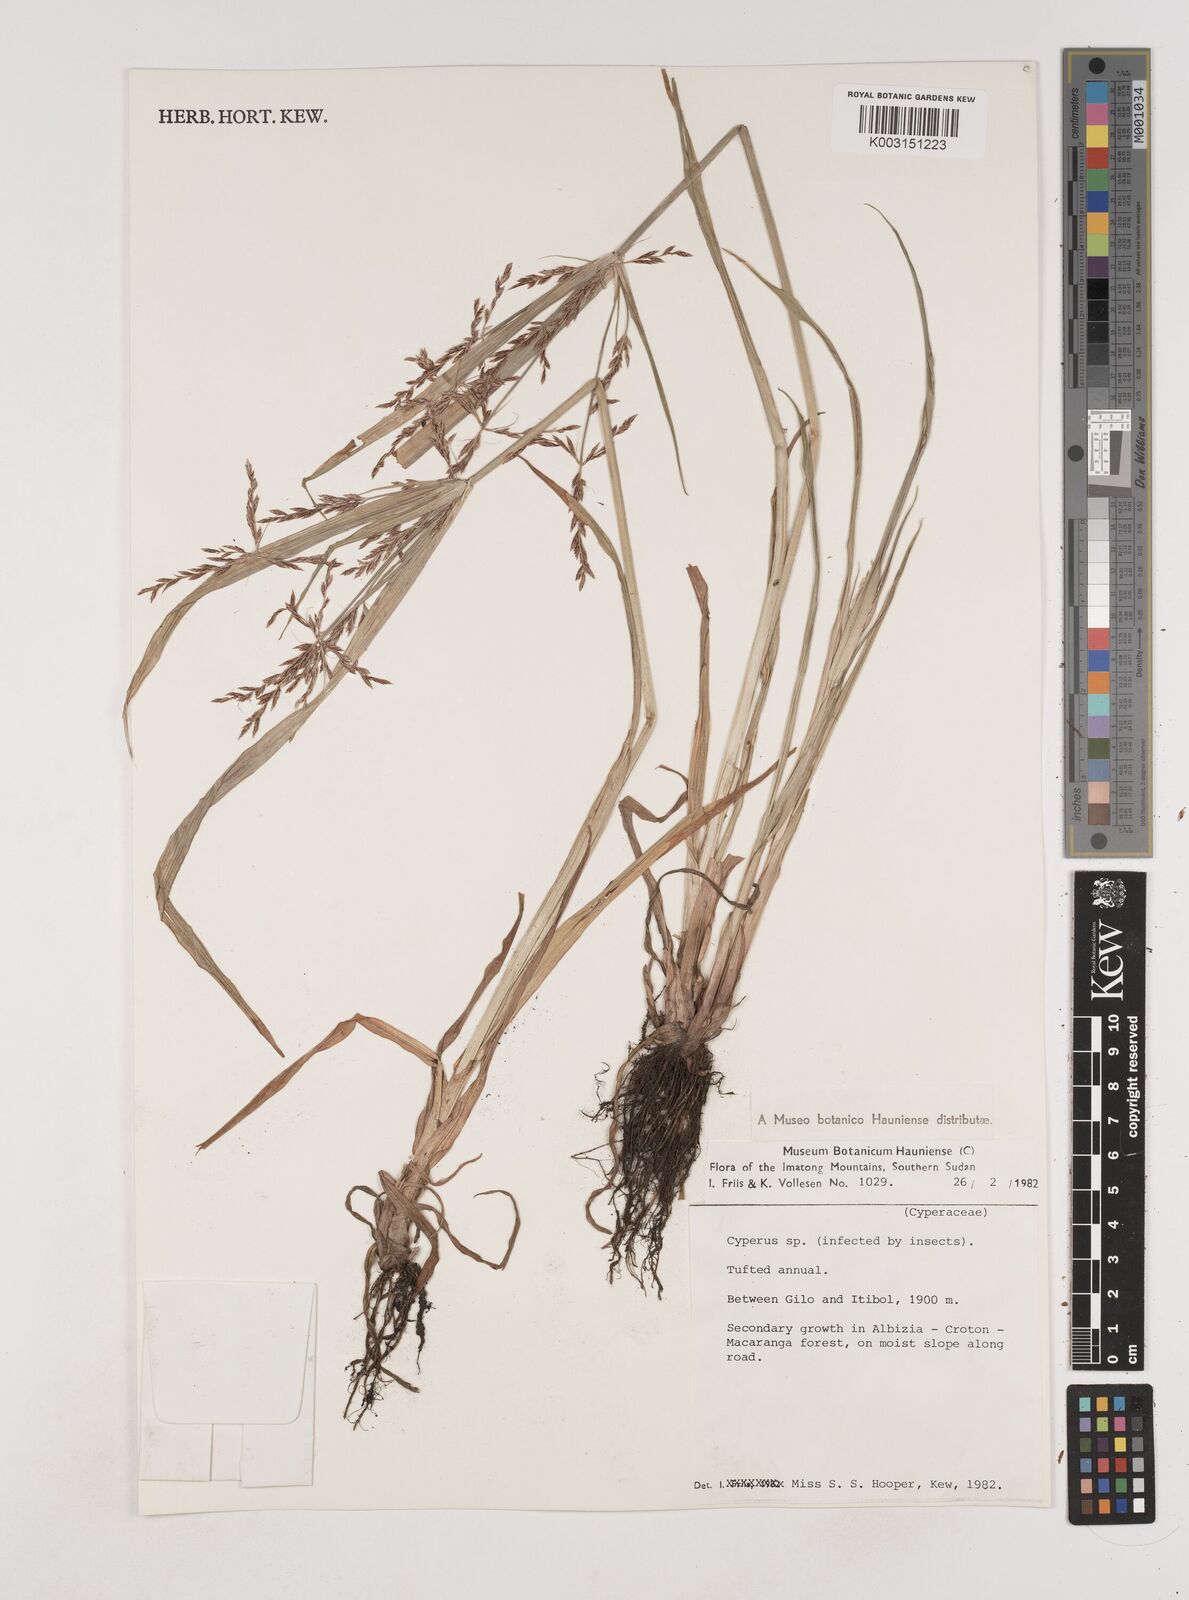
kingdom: Plantae
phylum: Tracheophyta
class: Liliopsida
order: Poales
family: Cyperaceae
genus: Cyperus
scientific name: Cyperus
